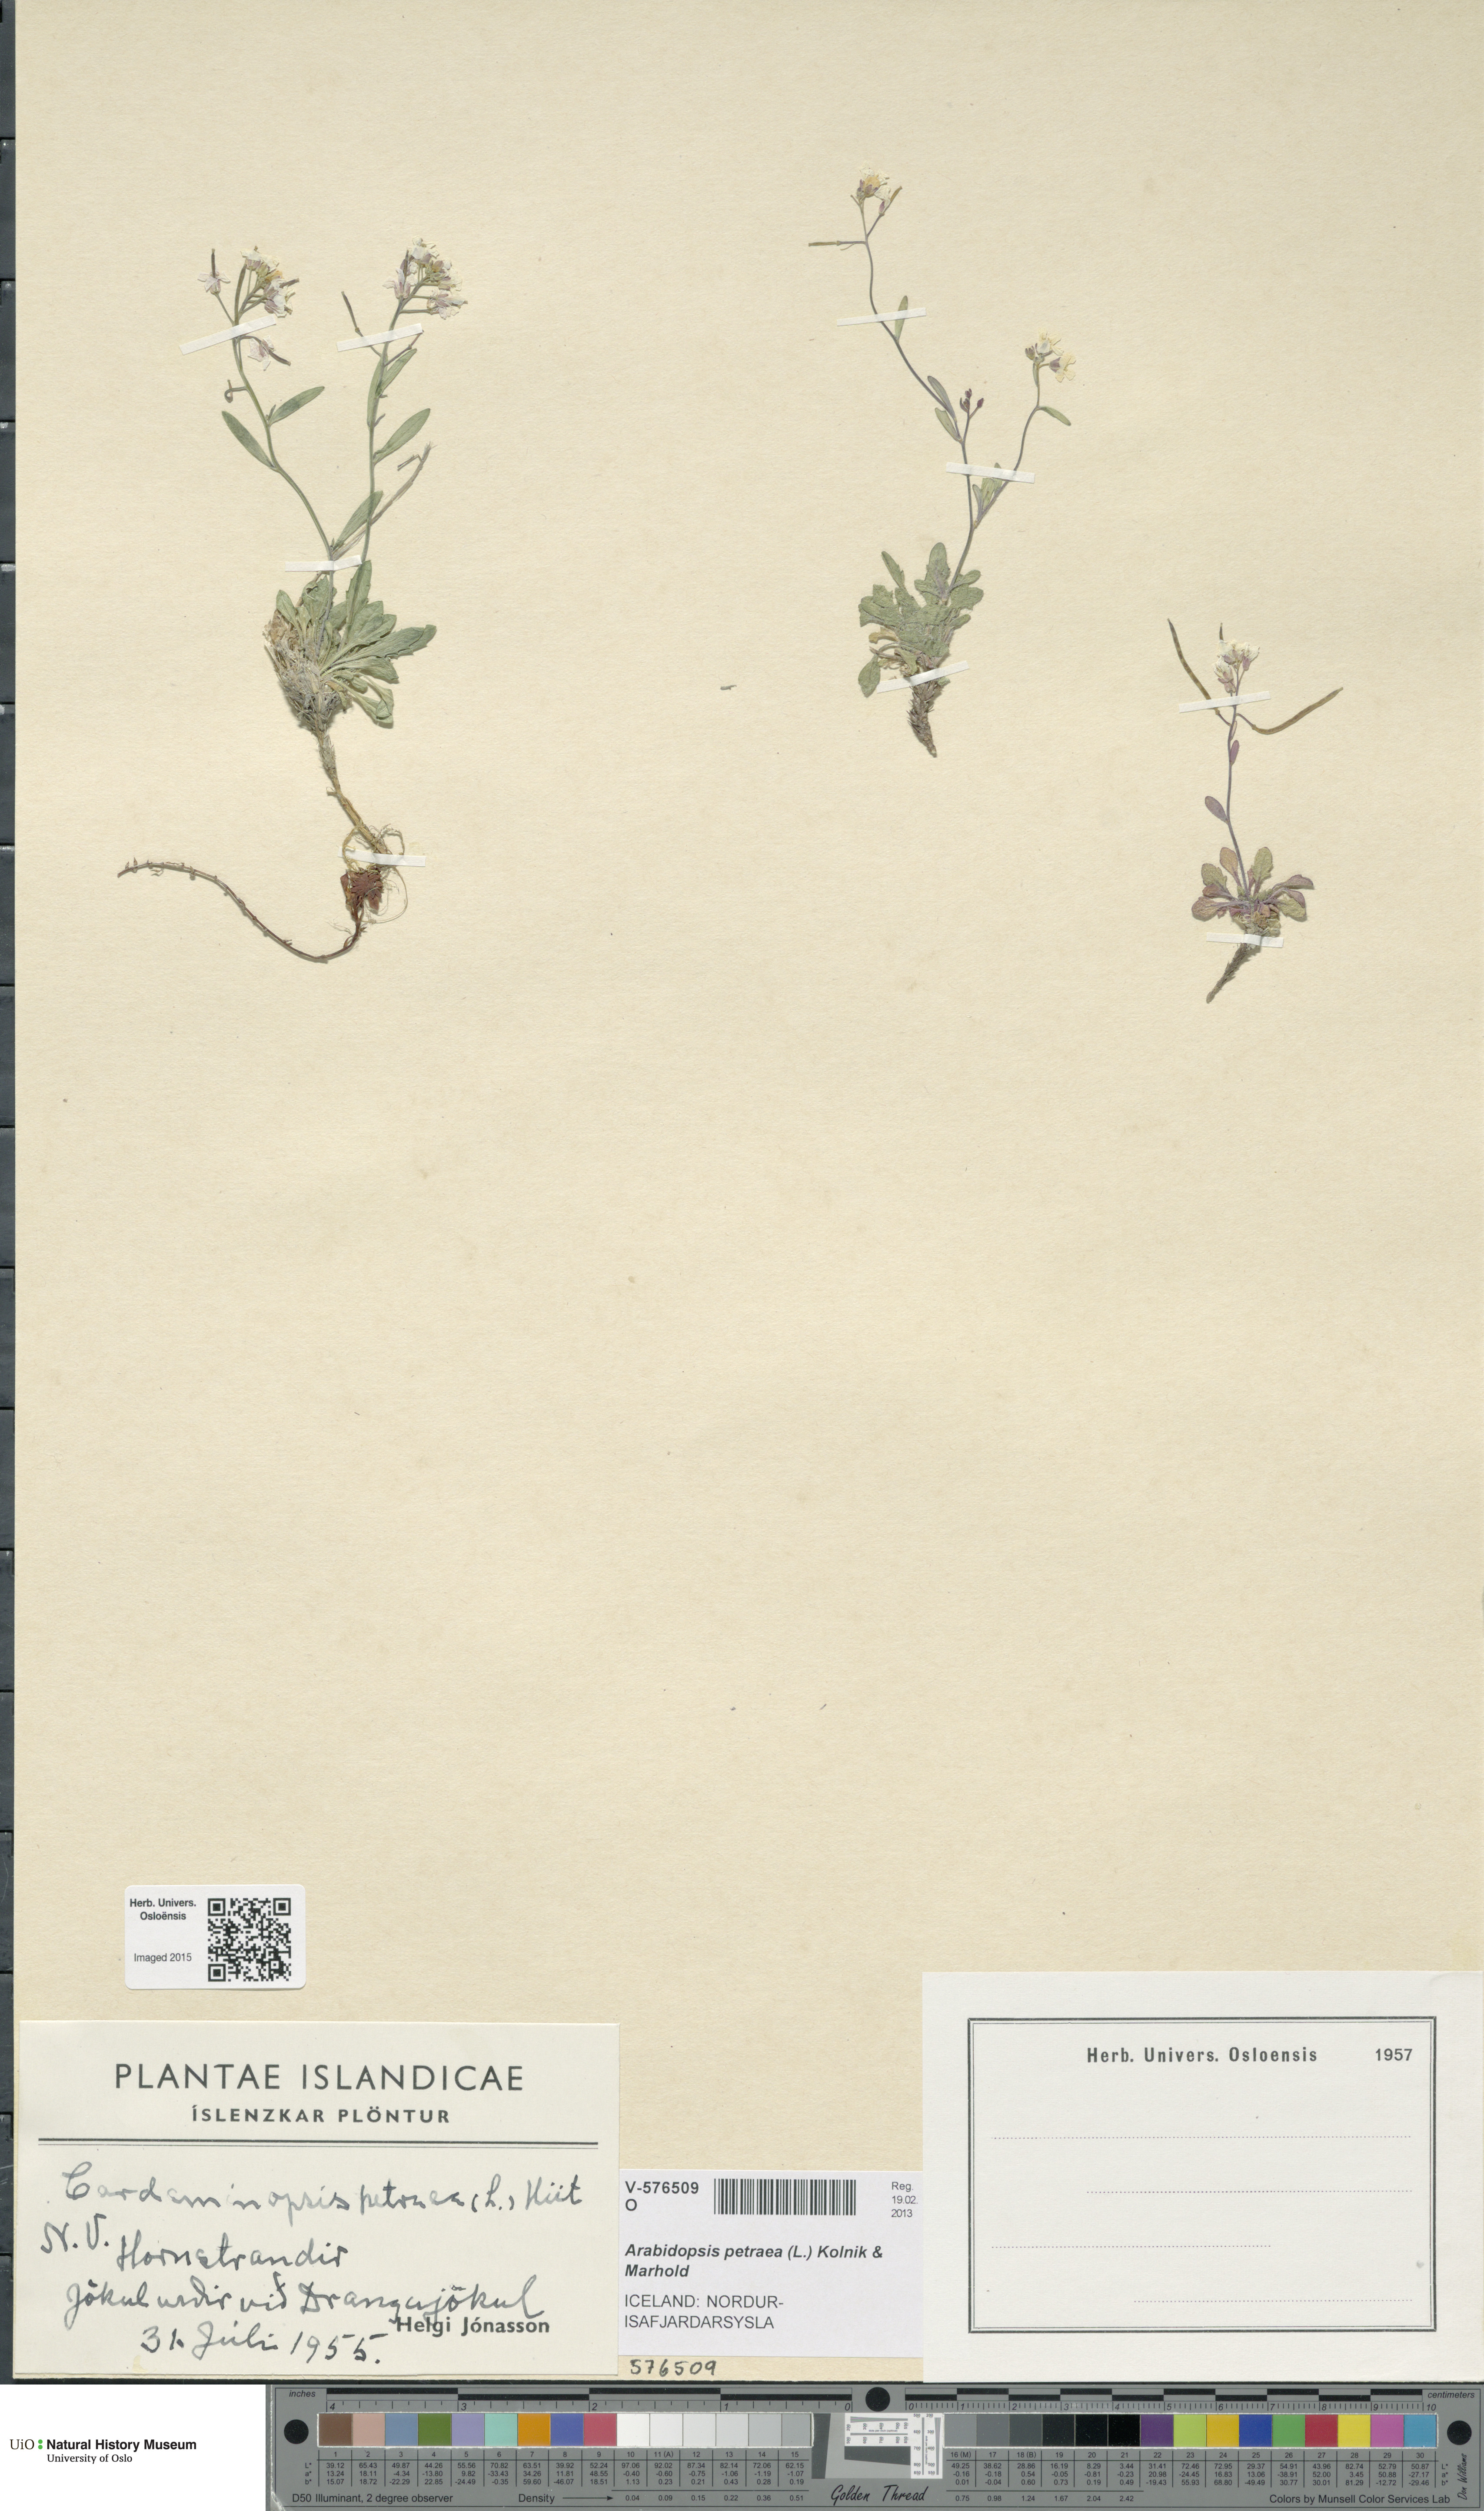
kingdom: Plantae
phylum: Tracheophyta
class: Magnoliopsida
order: Brassicales
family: Brassicaceae
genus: Arabidopsis
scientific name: Arabidopsis petraea
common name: Northern rock-cress
